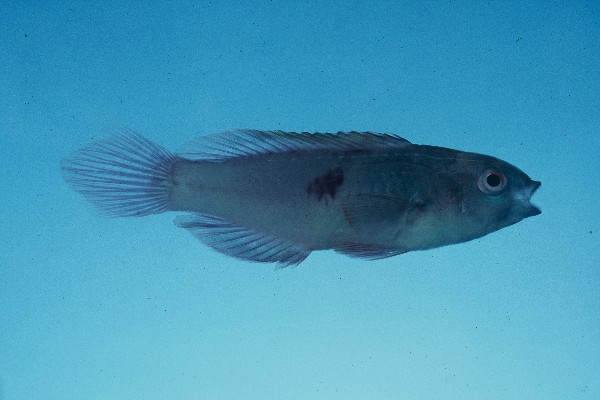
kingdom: Animalia
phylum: Chordata
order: Perciformes
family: Labridae
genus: Cirrhilabrus
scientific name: Cirrhilabrus sanguineus
